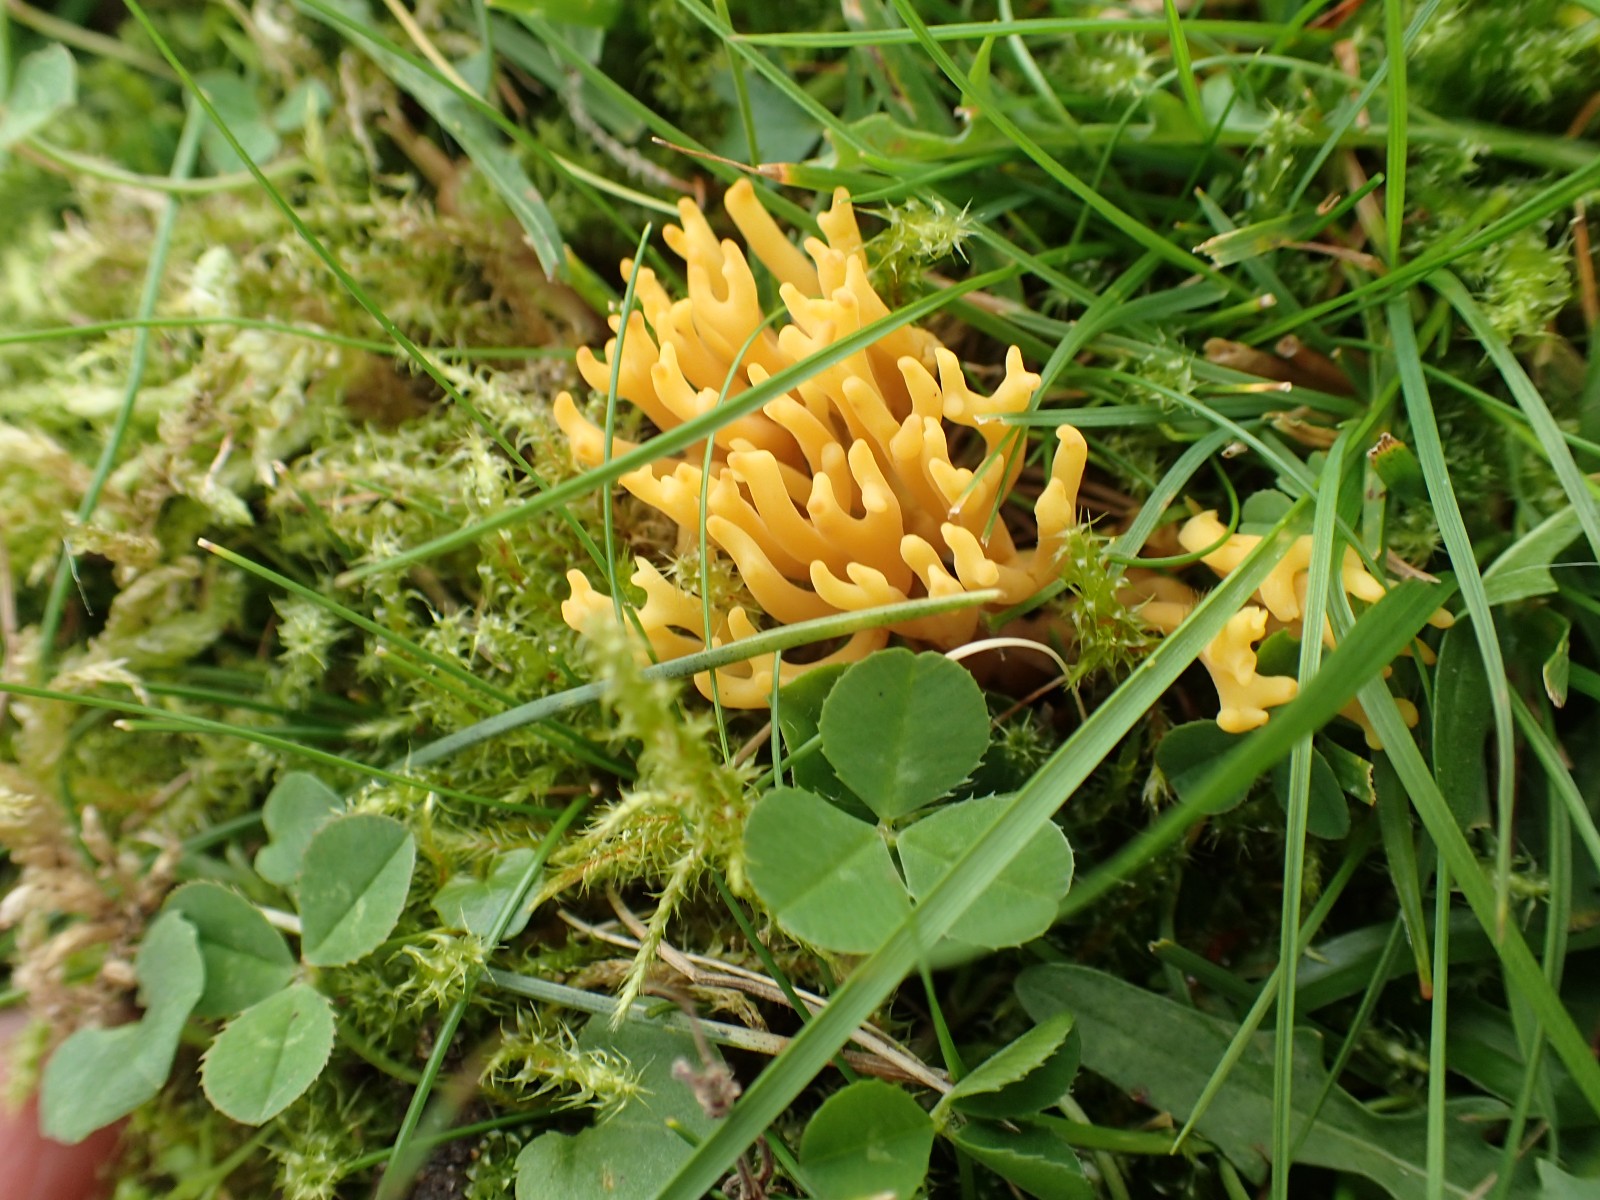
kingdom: Fungi
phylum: Basidiomycota
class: Agaricomycetes
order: Agaricales
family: Clavariaceae
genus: Clavulinopsis
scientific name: Clavulinopsis corniculata
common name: eng-køllesvamp
